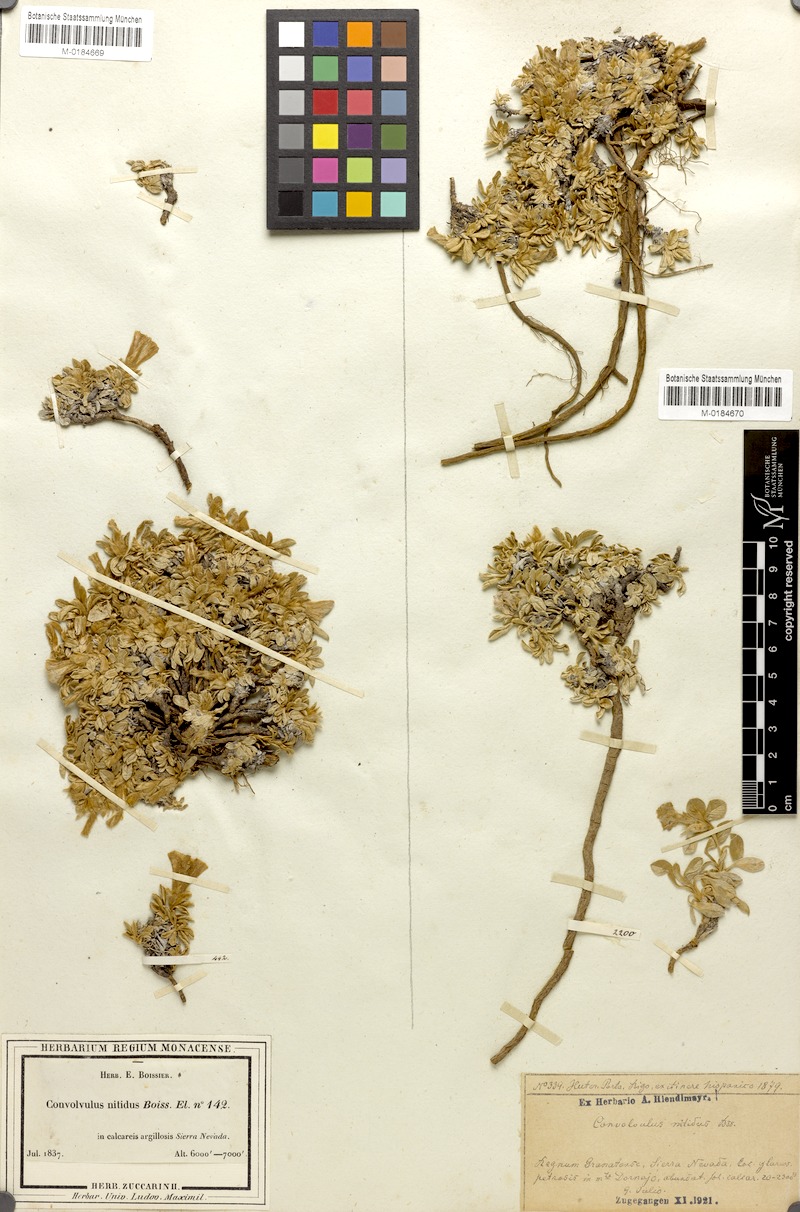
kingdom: Plantae
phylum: Tracheophyta
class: Magnoliopsida
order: Solanales
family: Convolvulaceae
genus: Convolvulus
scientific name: Convolvulus boissieri
